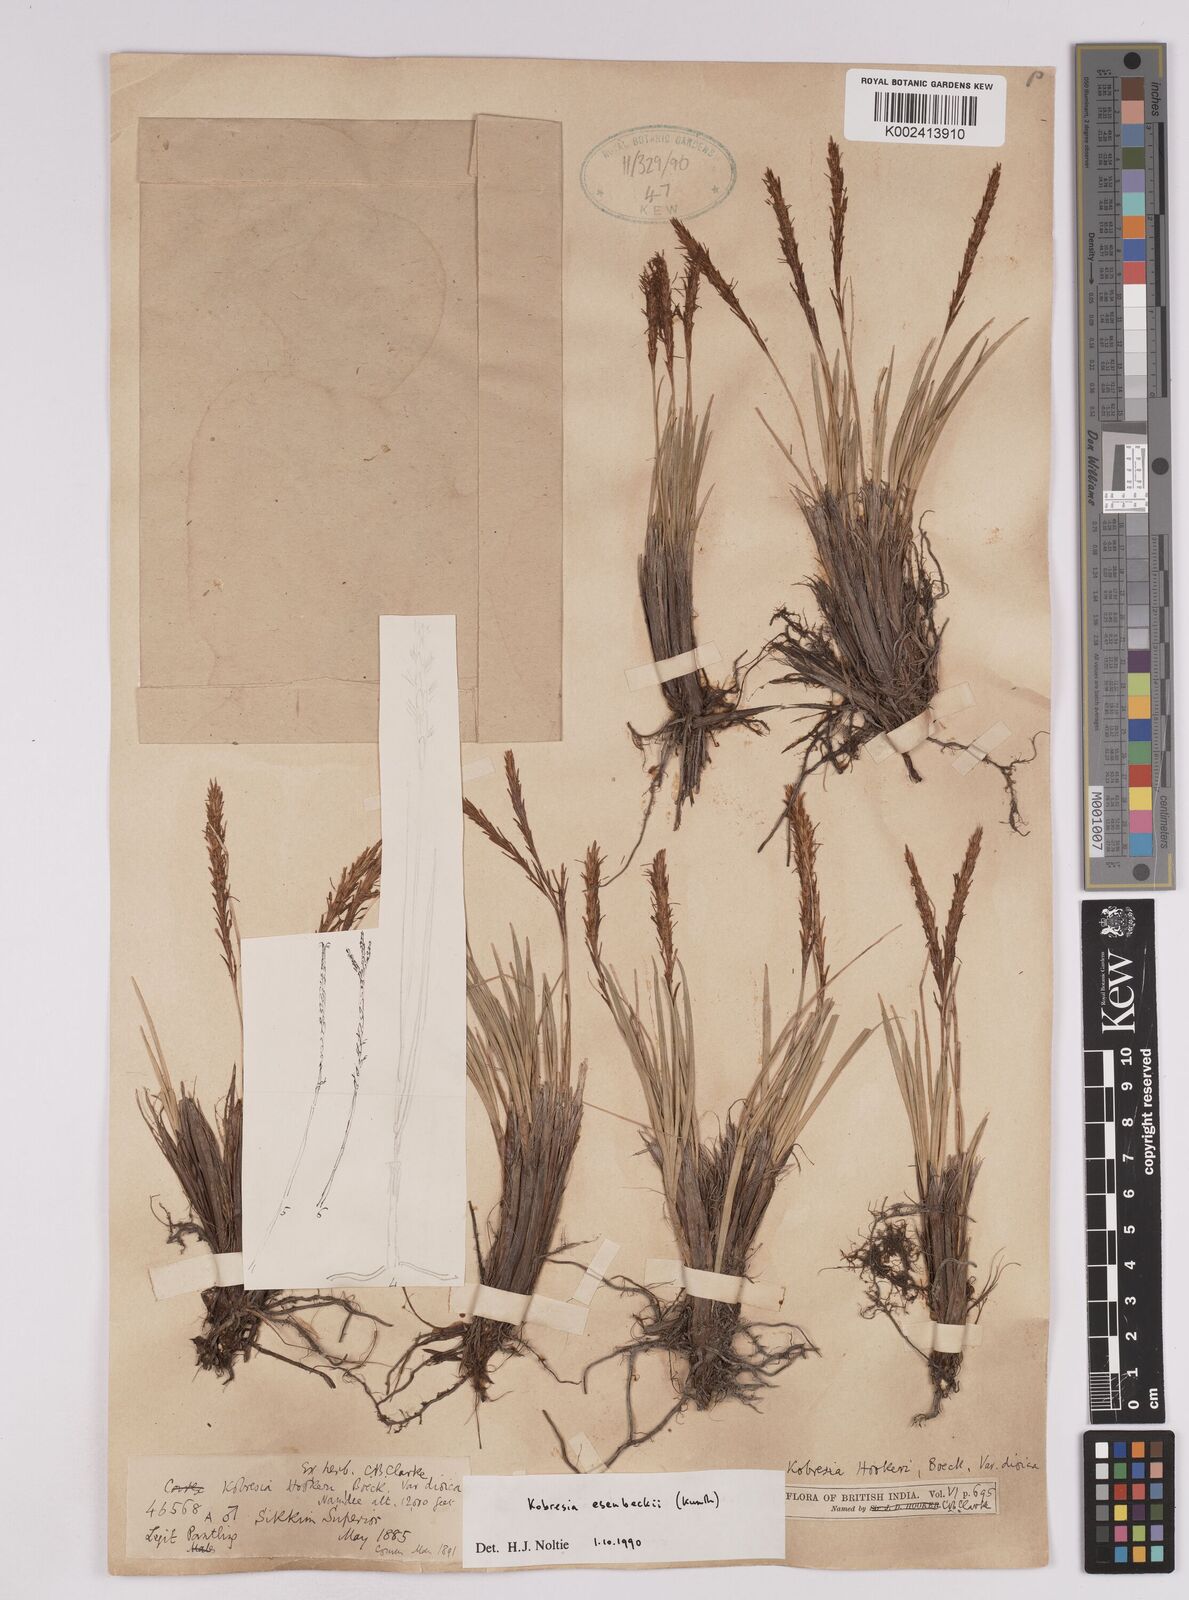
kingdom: Plantae
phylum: Tracheophyta
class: Liliopsida
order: Poales
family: Cyperaceae
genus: Carex
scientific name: Carex esenbeckii
